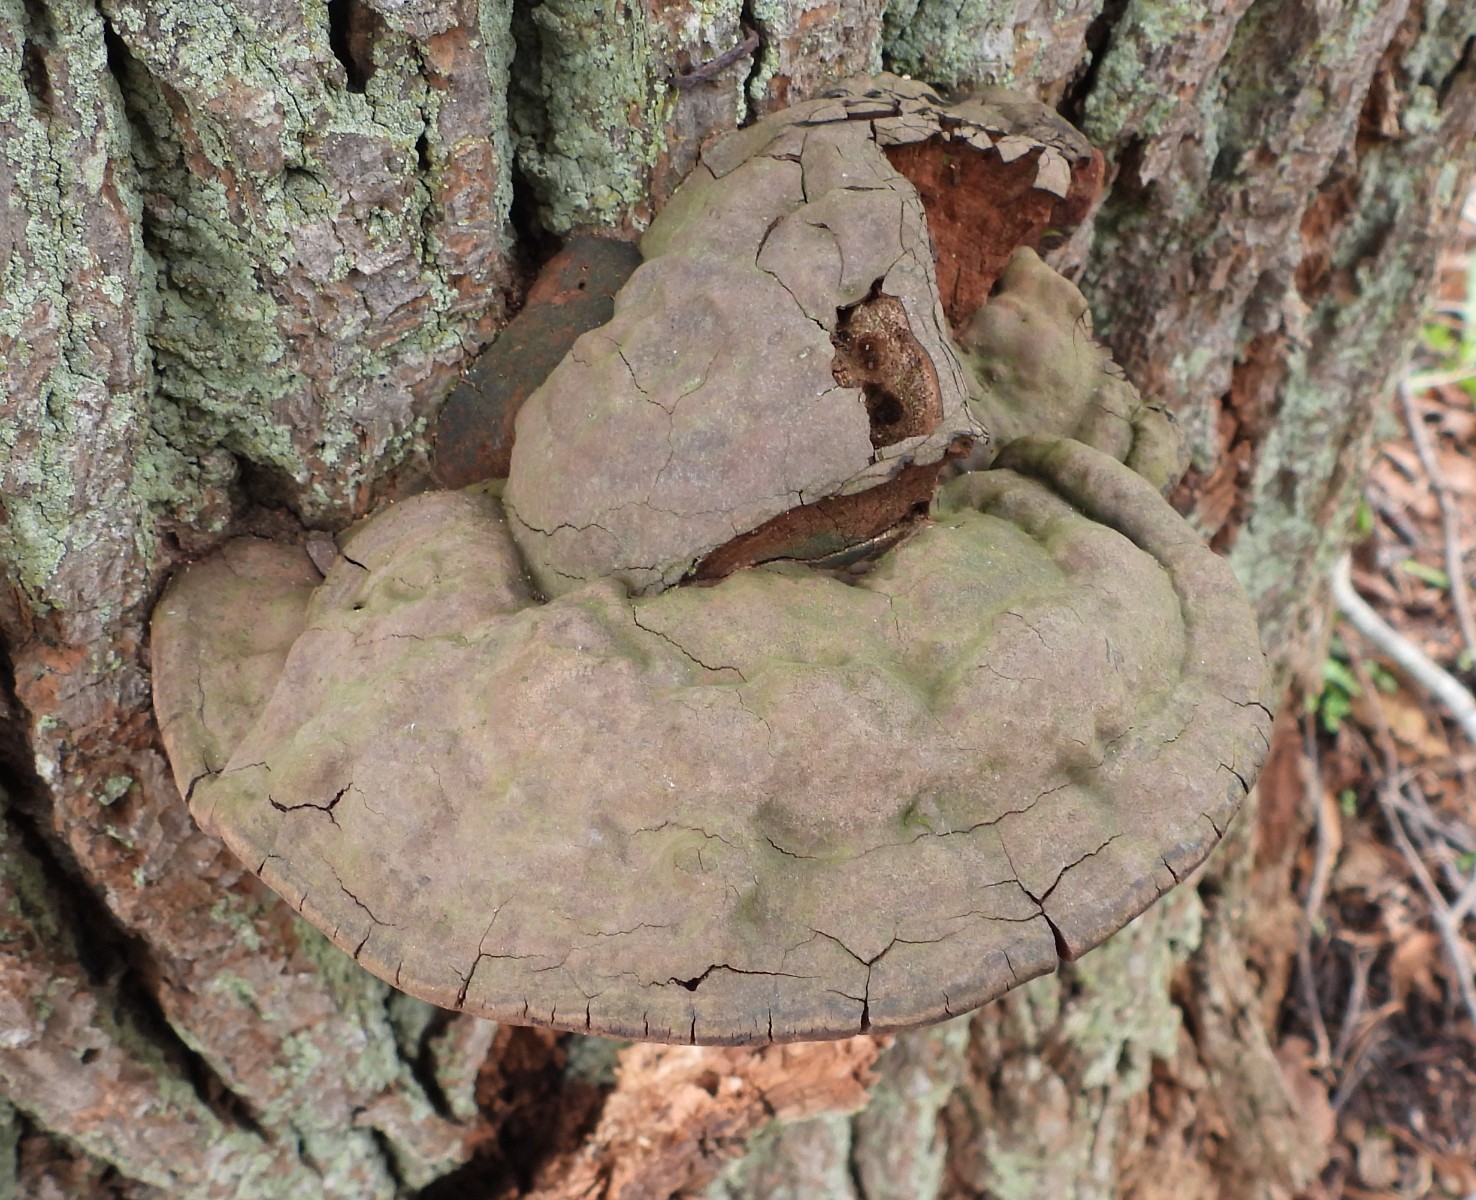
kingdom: Fungi
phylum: Basidiomycota
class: Agaricomycetes
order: Polyporales
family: Polyporaceae
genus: Ganoderma
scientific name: Ganoderma adspersum
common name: grov lakporesvamp
